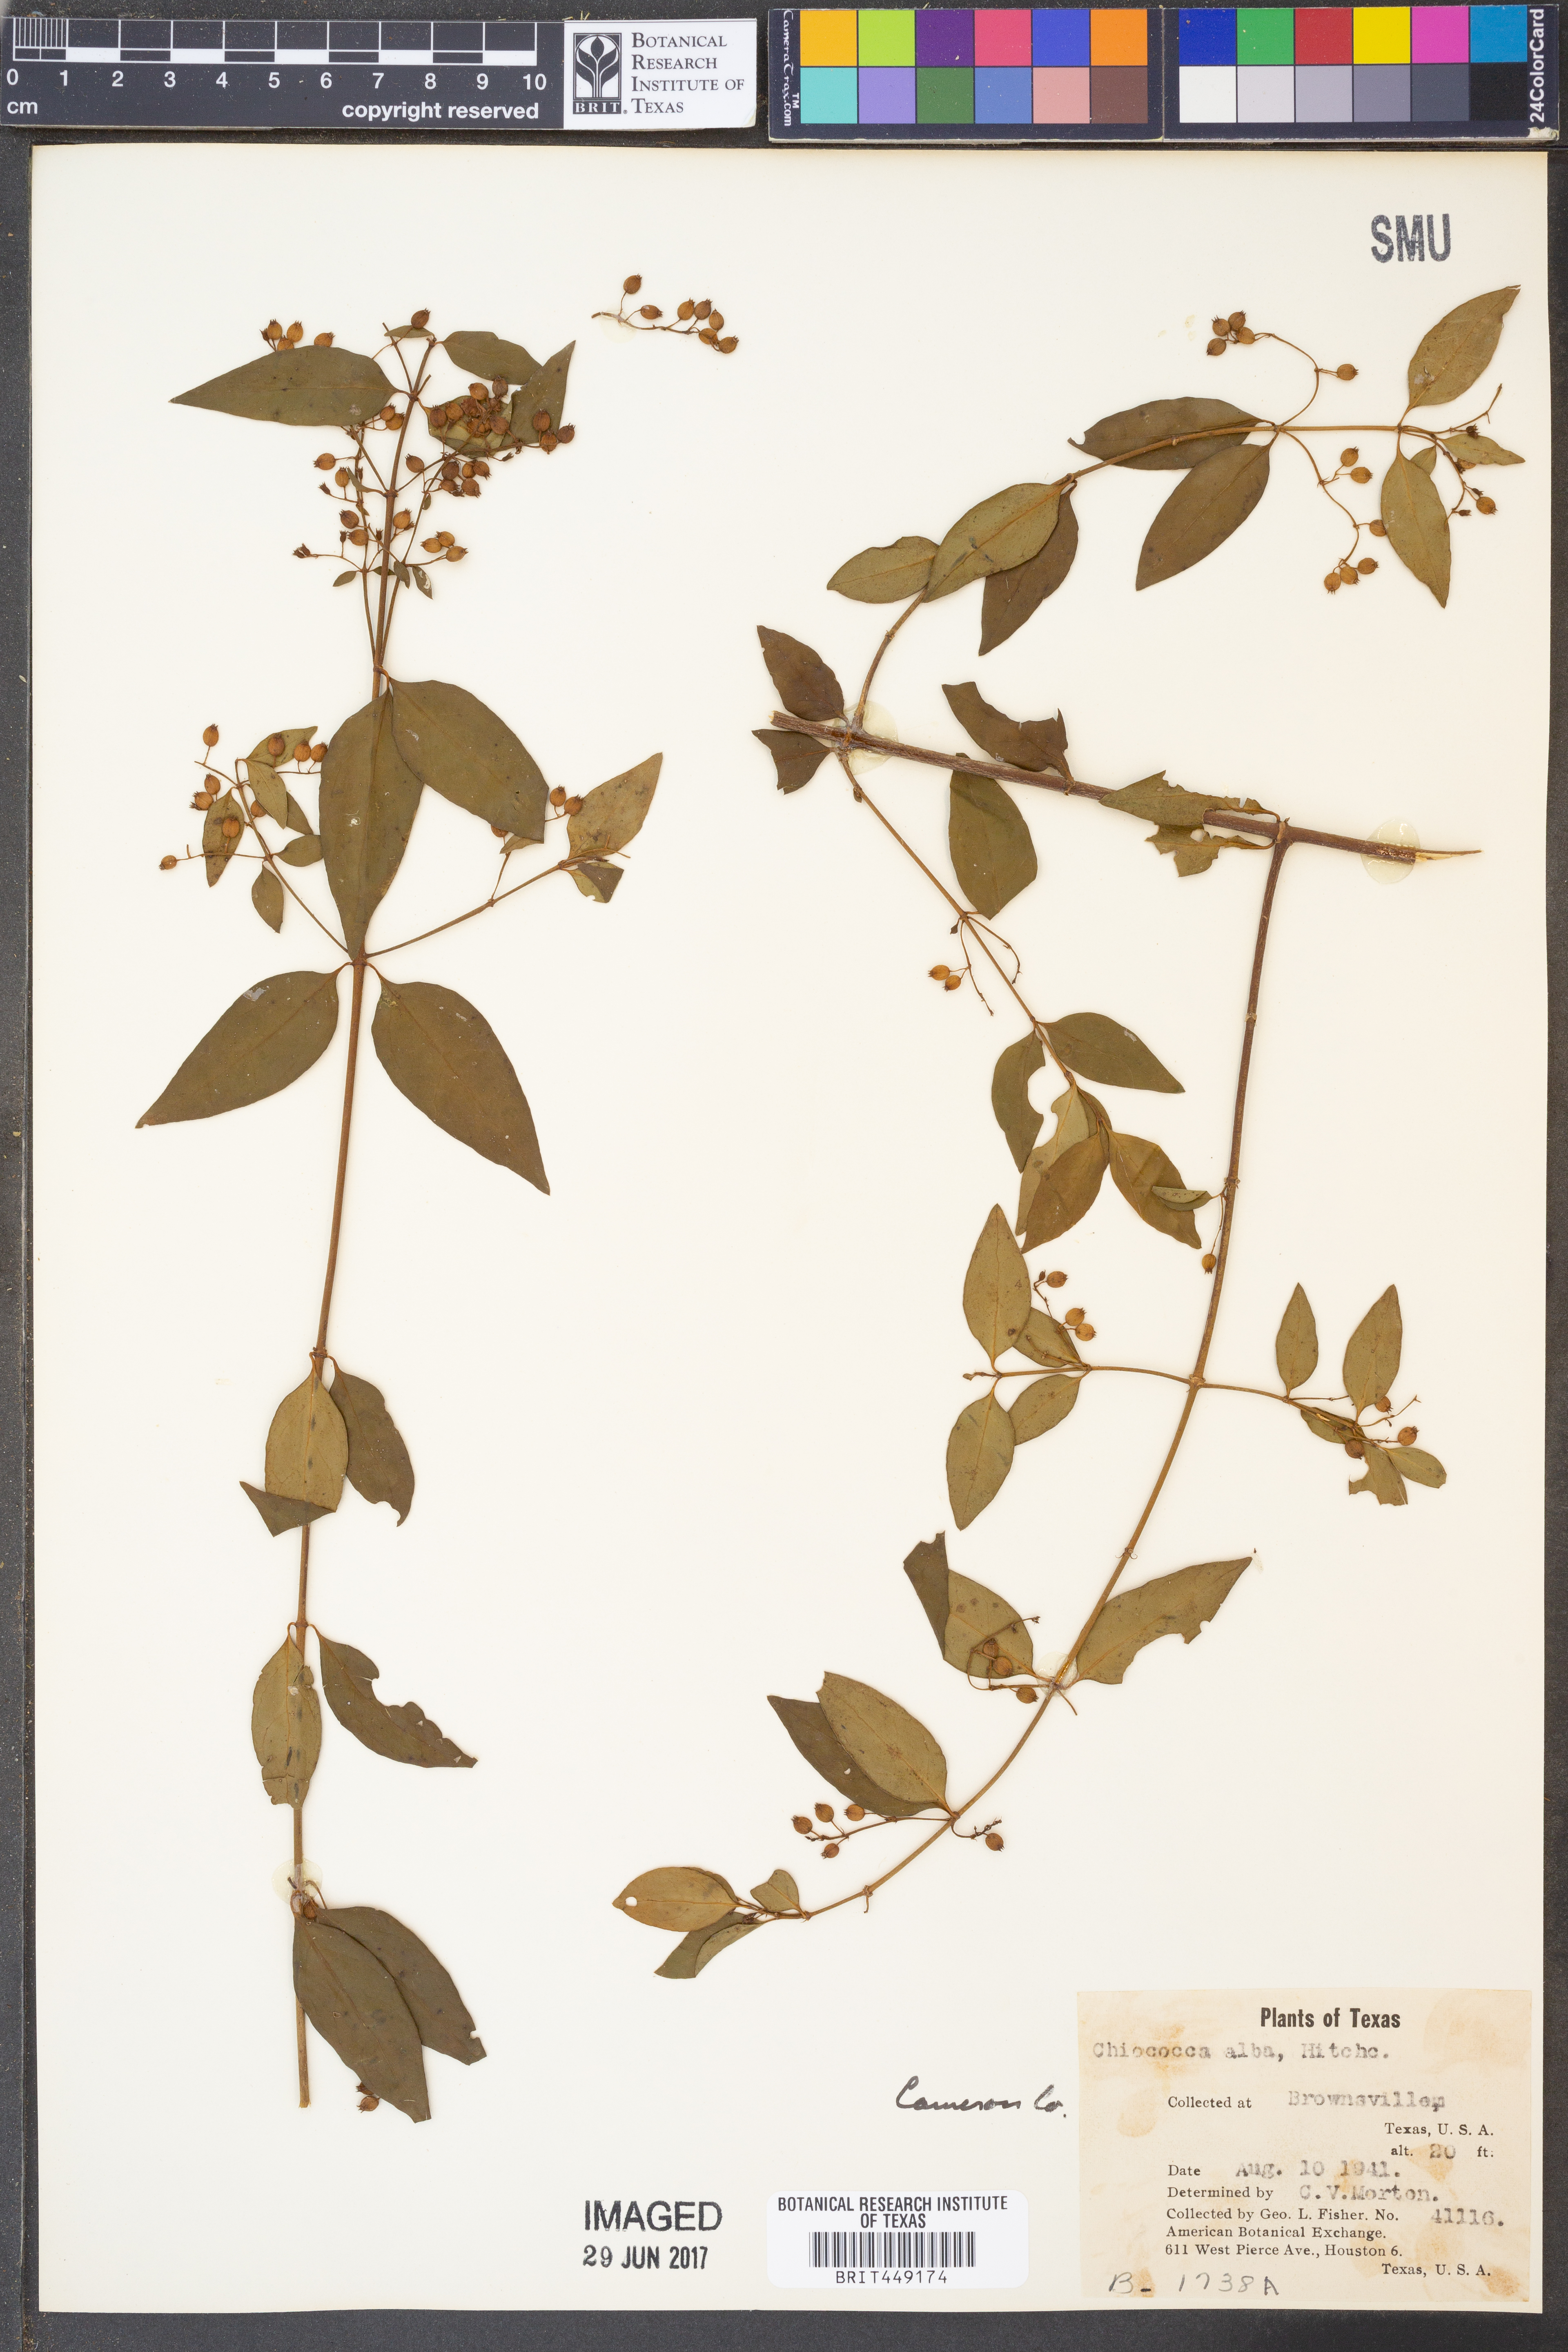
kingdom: Plantae
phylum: Tracheophyta
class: Magnoliopsida
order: Gentianales
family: Rubiaceae
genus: Chiococca
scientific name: Chiococca alba
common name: Snowberry
